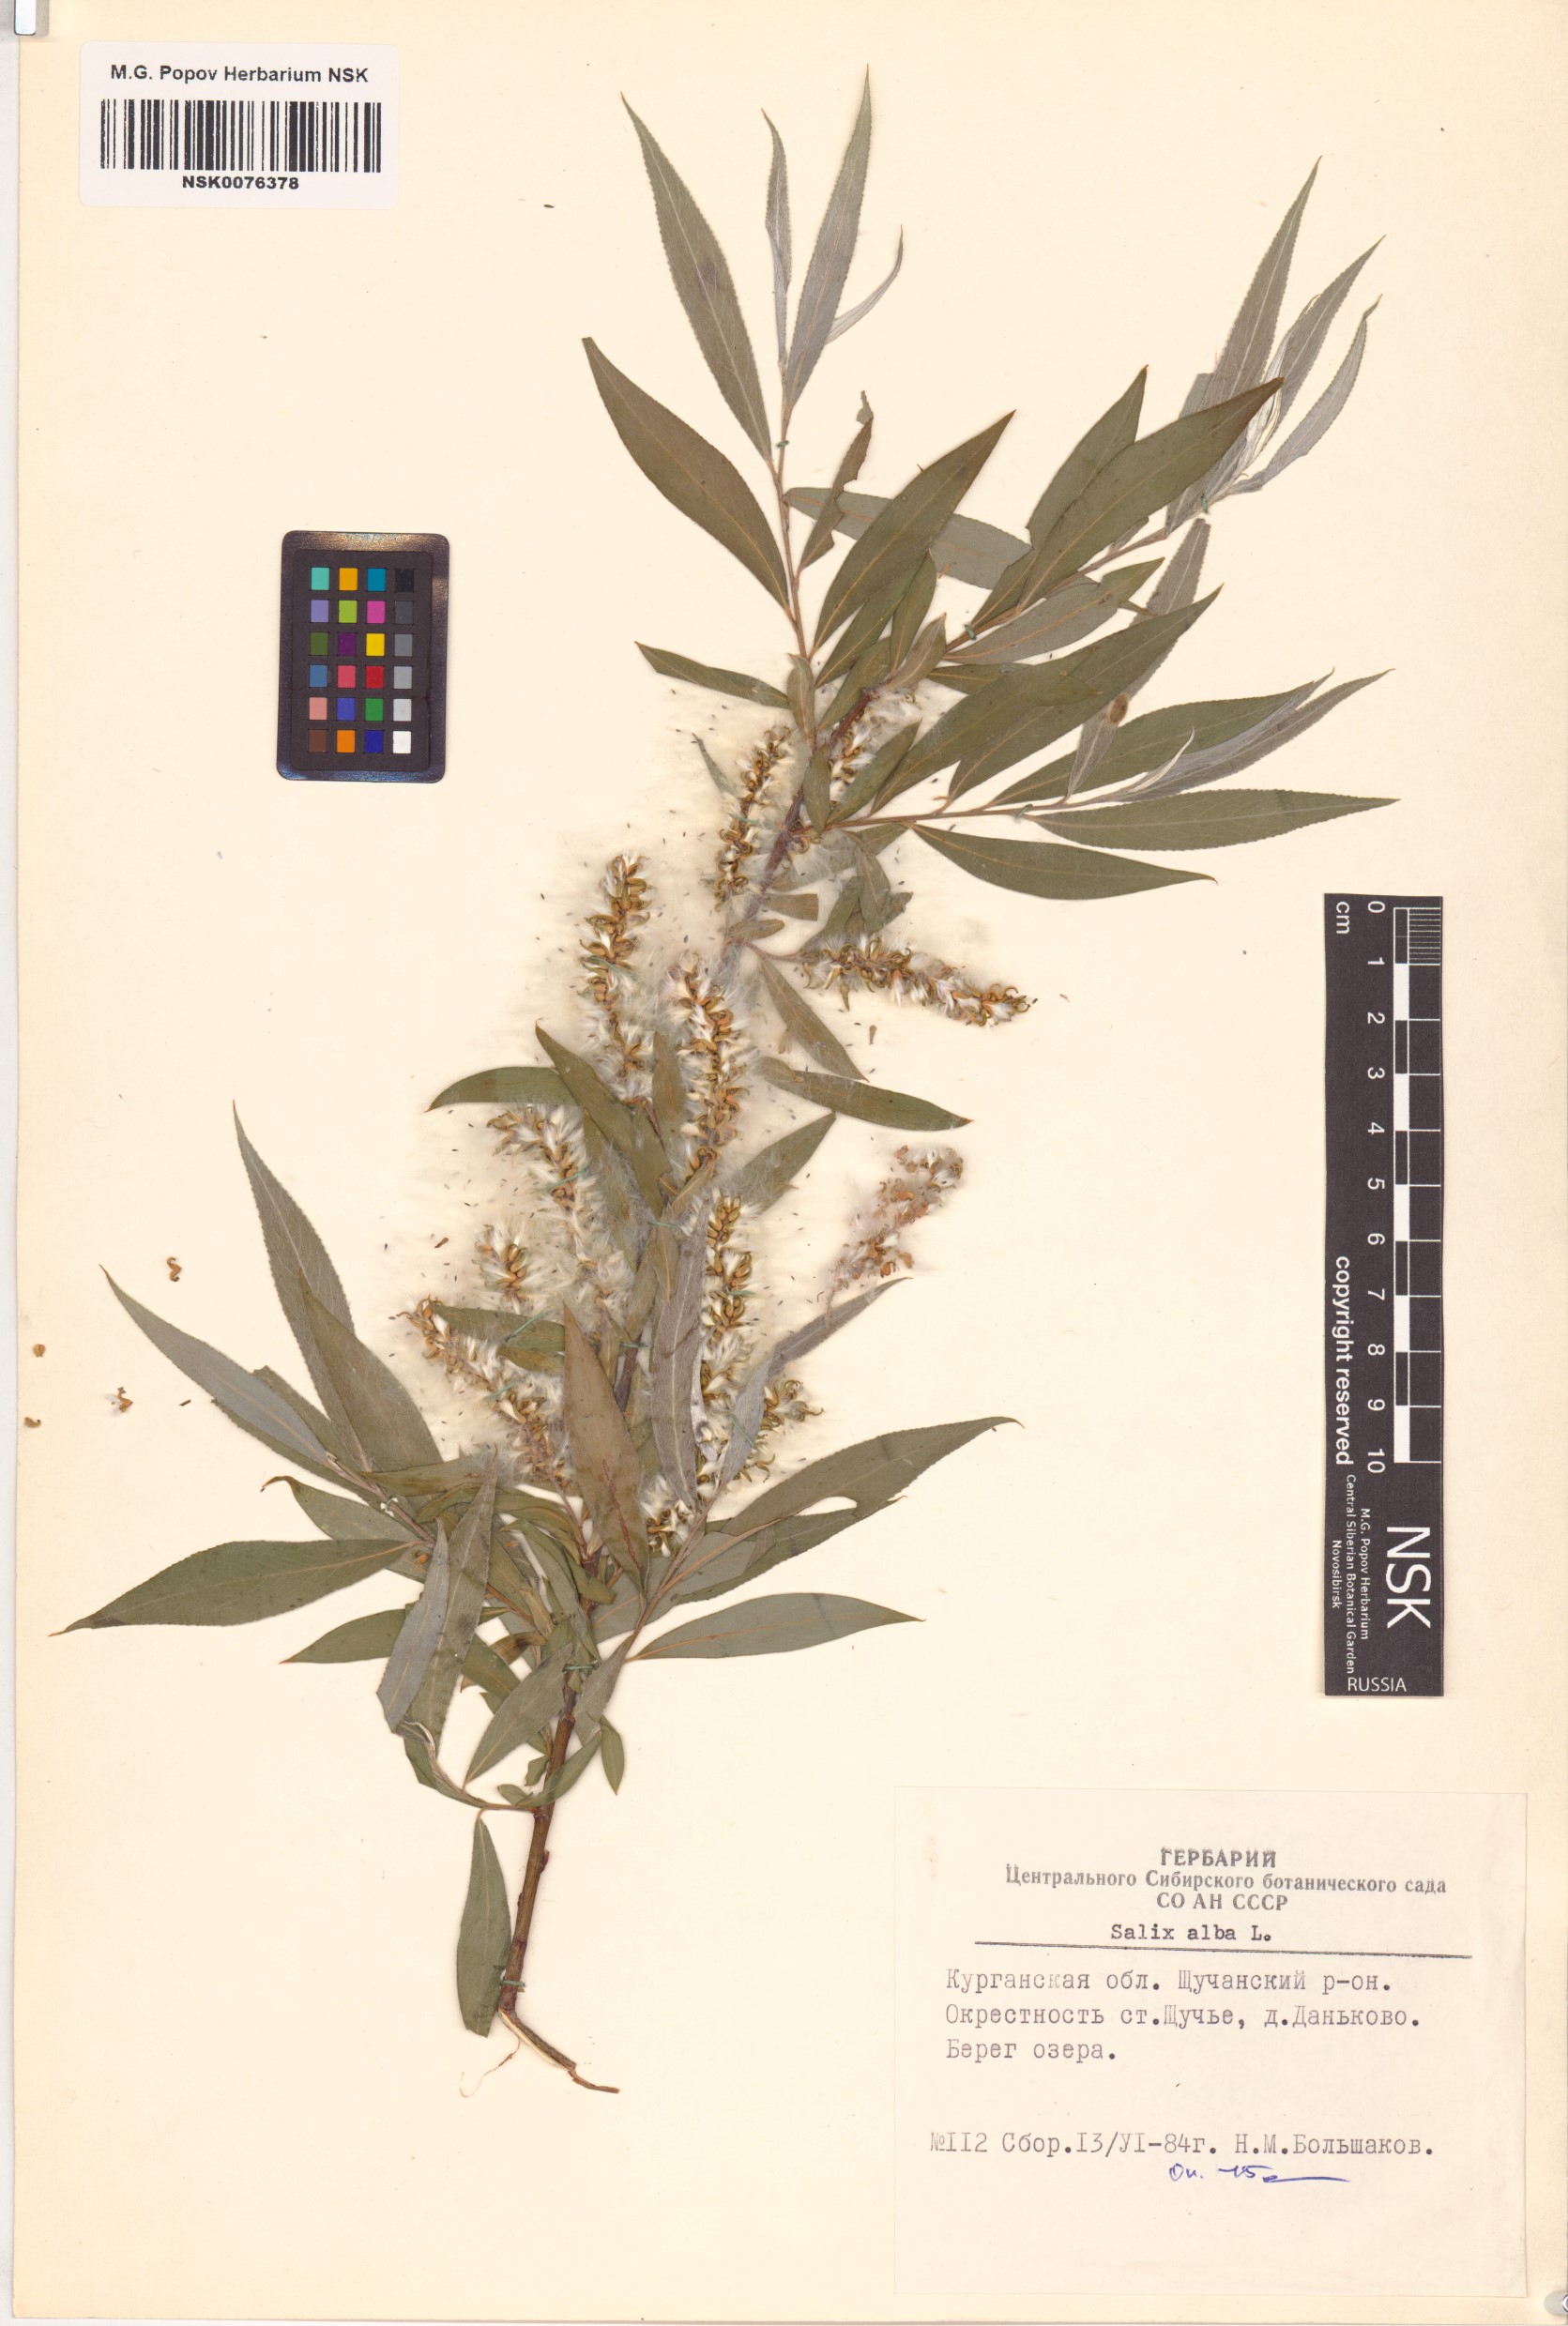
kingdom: Plantae
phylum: Tracheophyta
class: Magnoliopsida
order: Malpighiales
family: Salicaceae
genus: Salix
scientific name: Salix alba
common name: White willow
